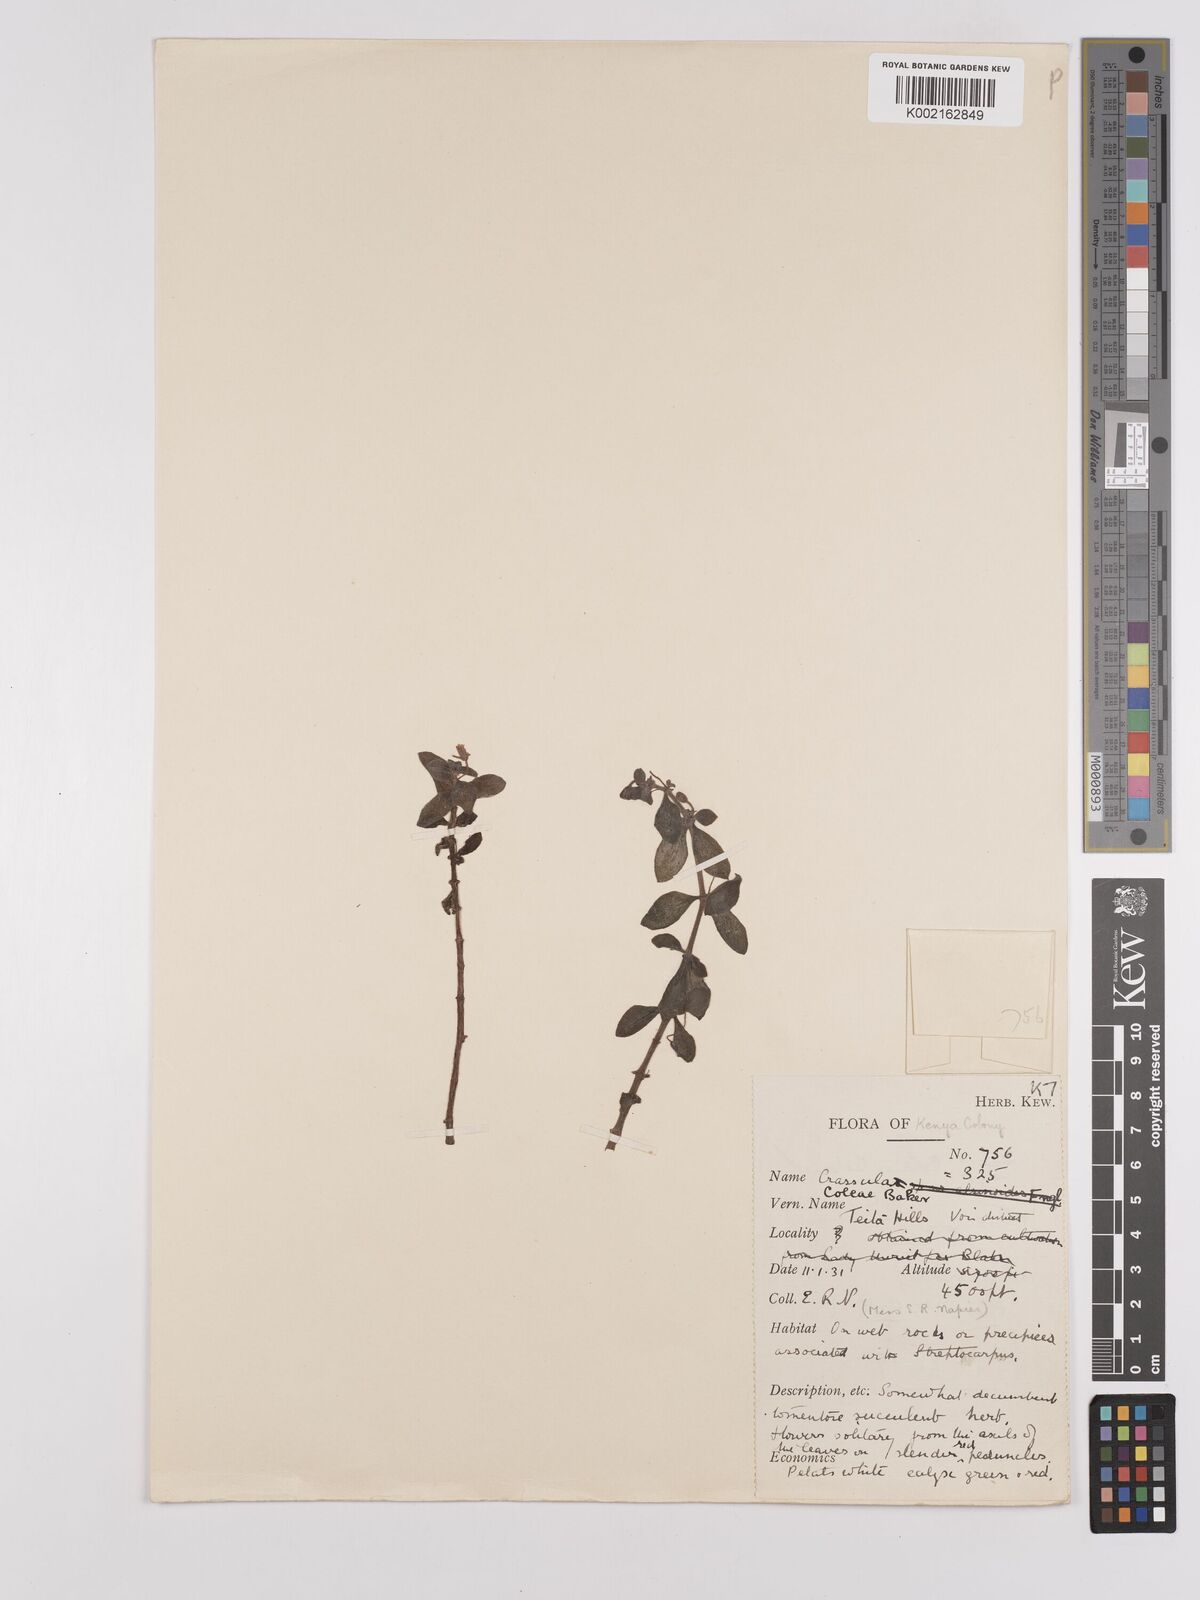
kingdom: Plantae
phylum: Tracheophyta
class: Magnoliopsida
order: Saxifragales
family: Crassulaceae
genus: Crassula
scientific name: Crassula volkensii
